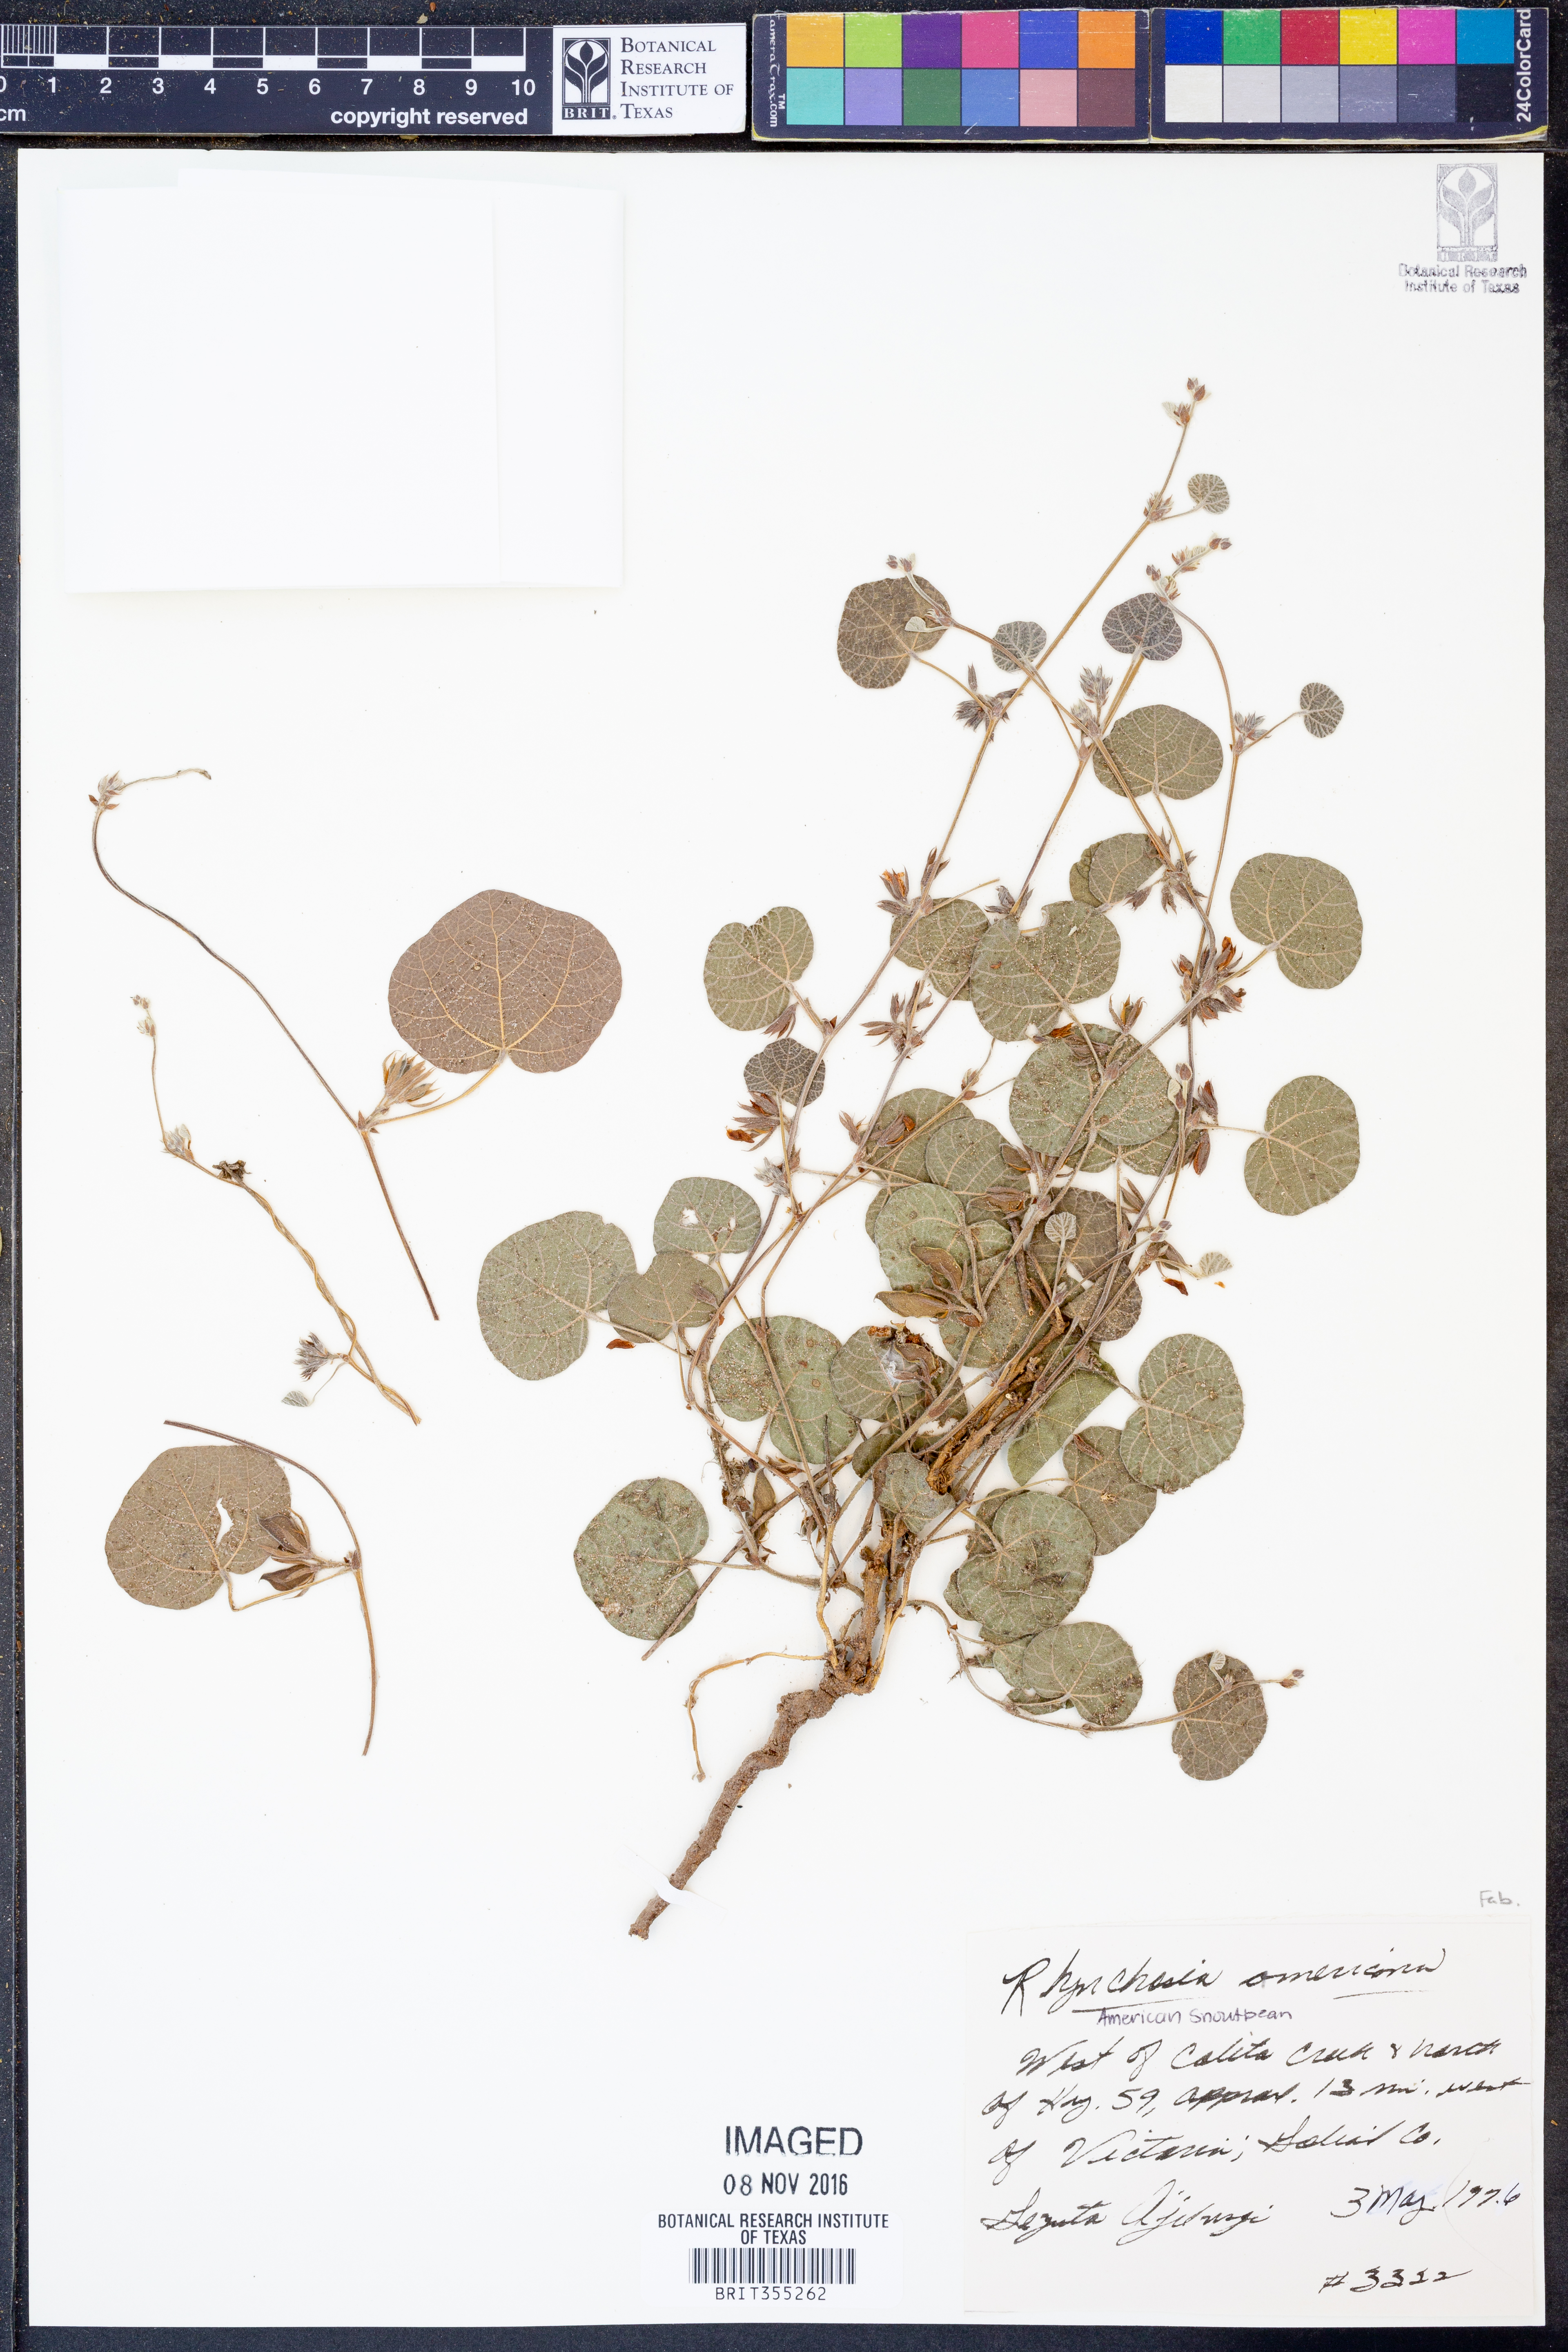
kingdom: Plantae
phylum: Tracheophyta
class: Magnoliopsida
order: Fabales
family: Fabaceae
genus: Rhynchosia
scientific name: Rhynchosia americana
